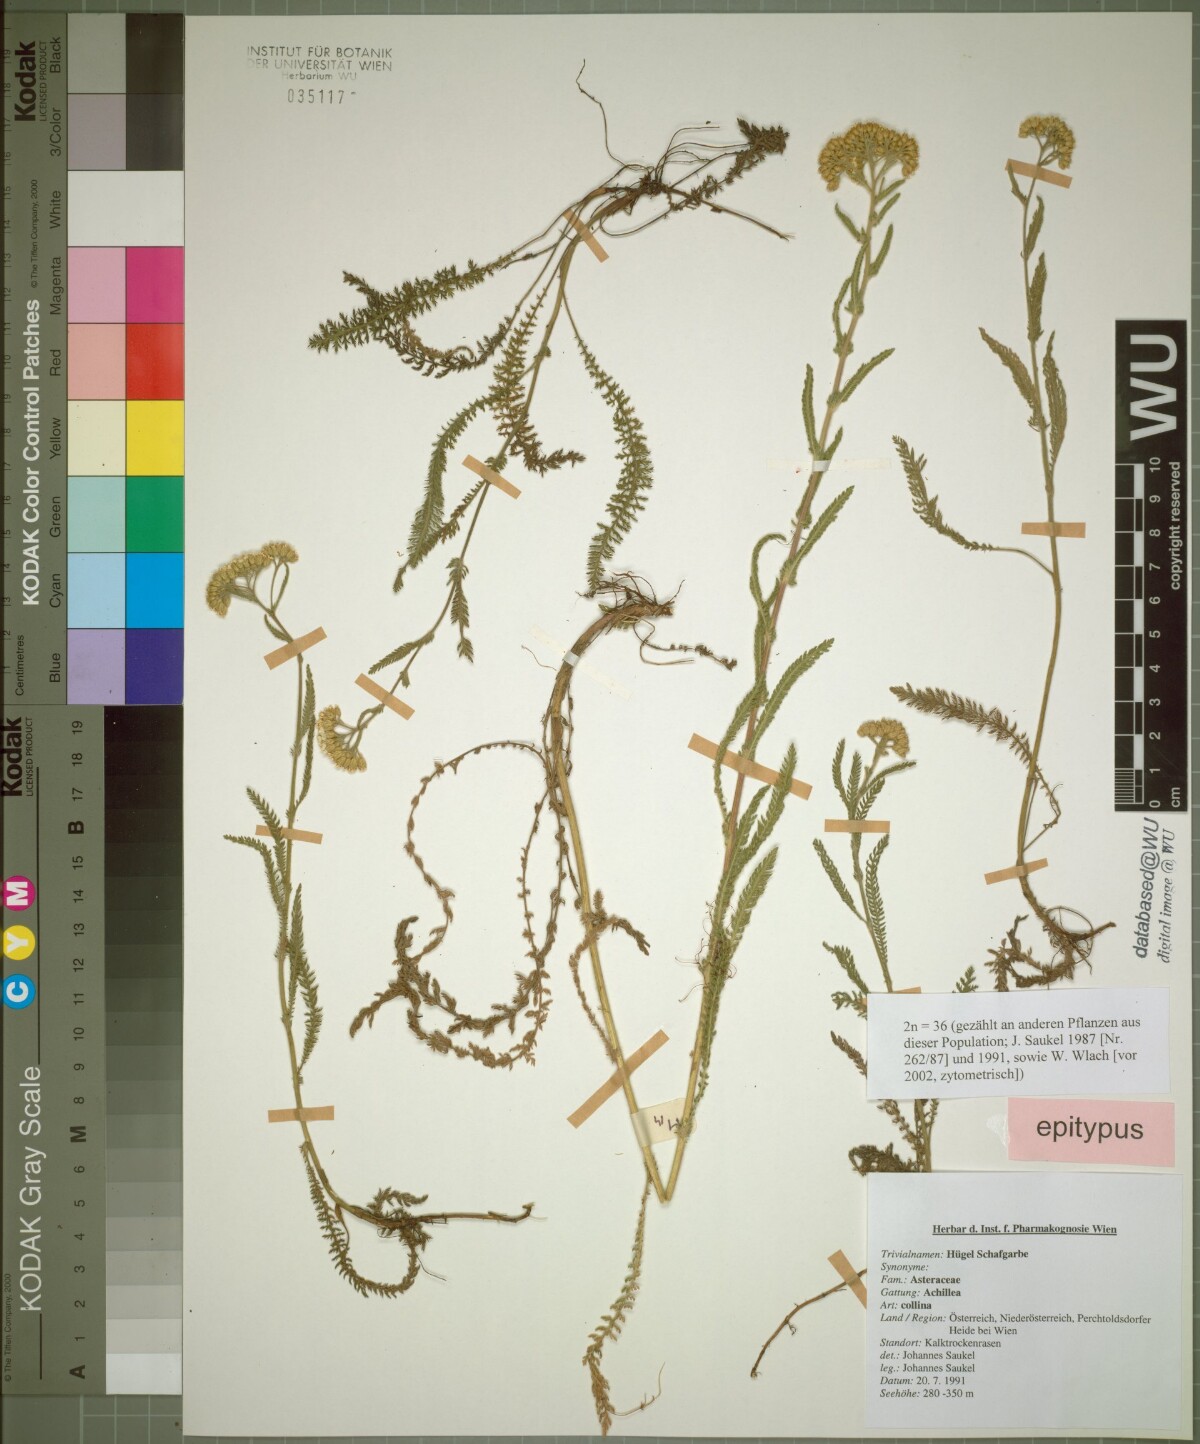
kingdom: Plantae
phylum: Tracheophyta
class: Magnoliopsida
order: Asterales
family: Asteraceae
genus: Achillea
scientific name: Achillea collina
